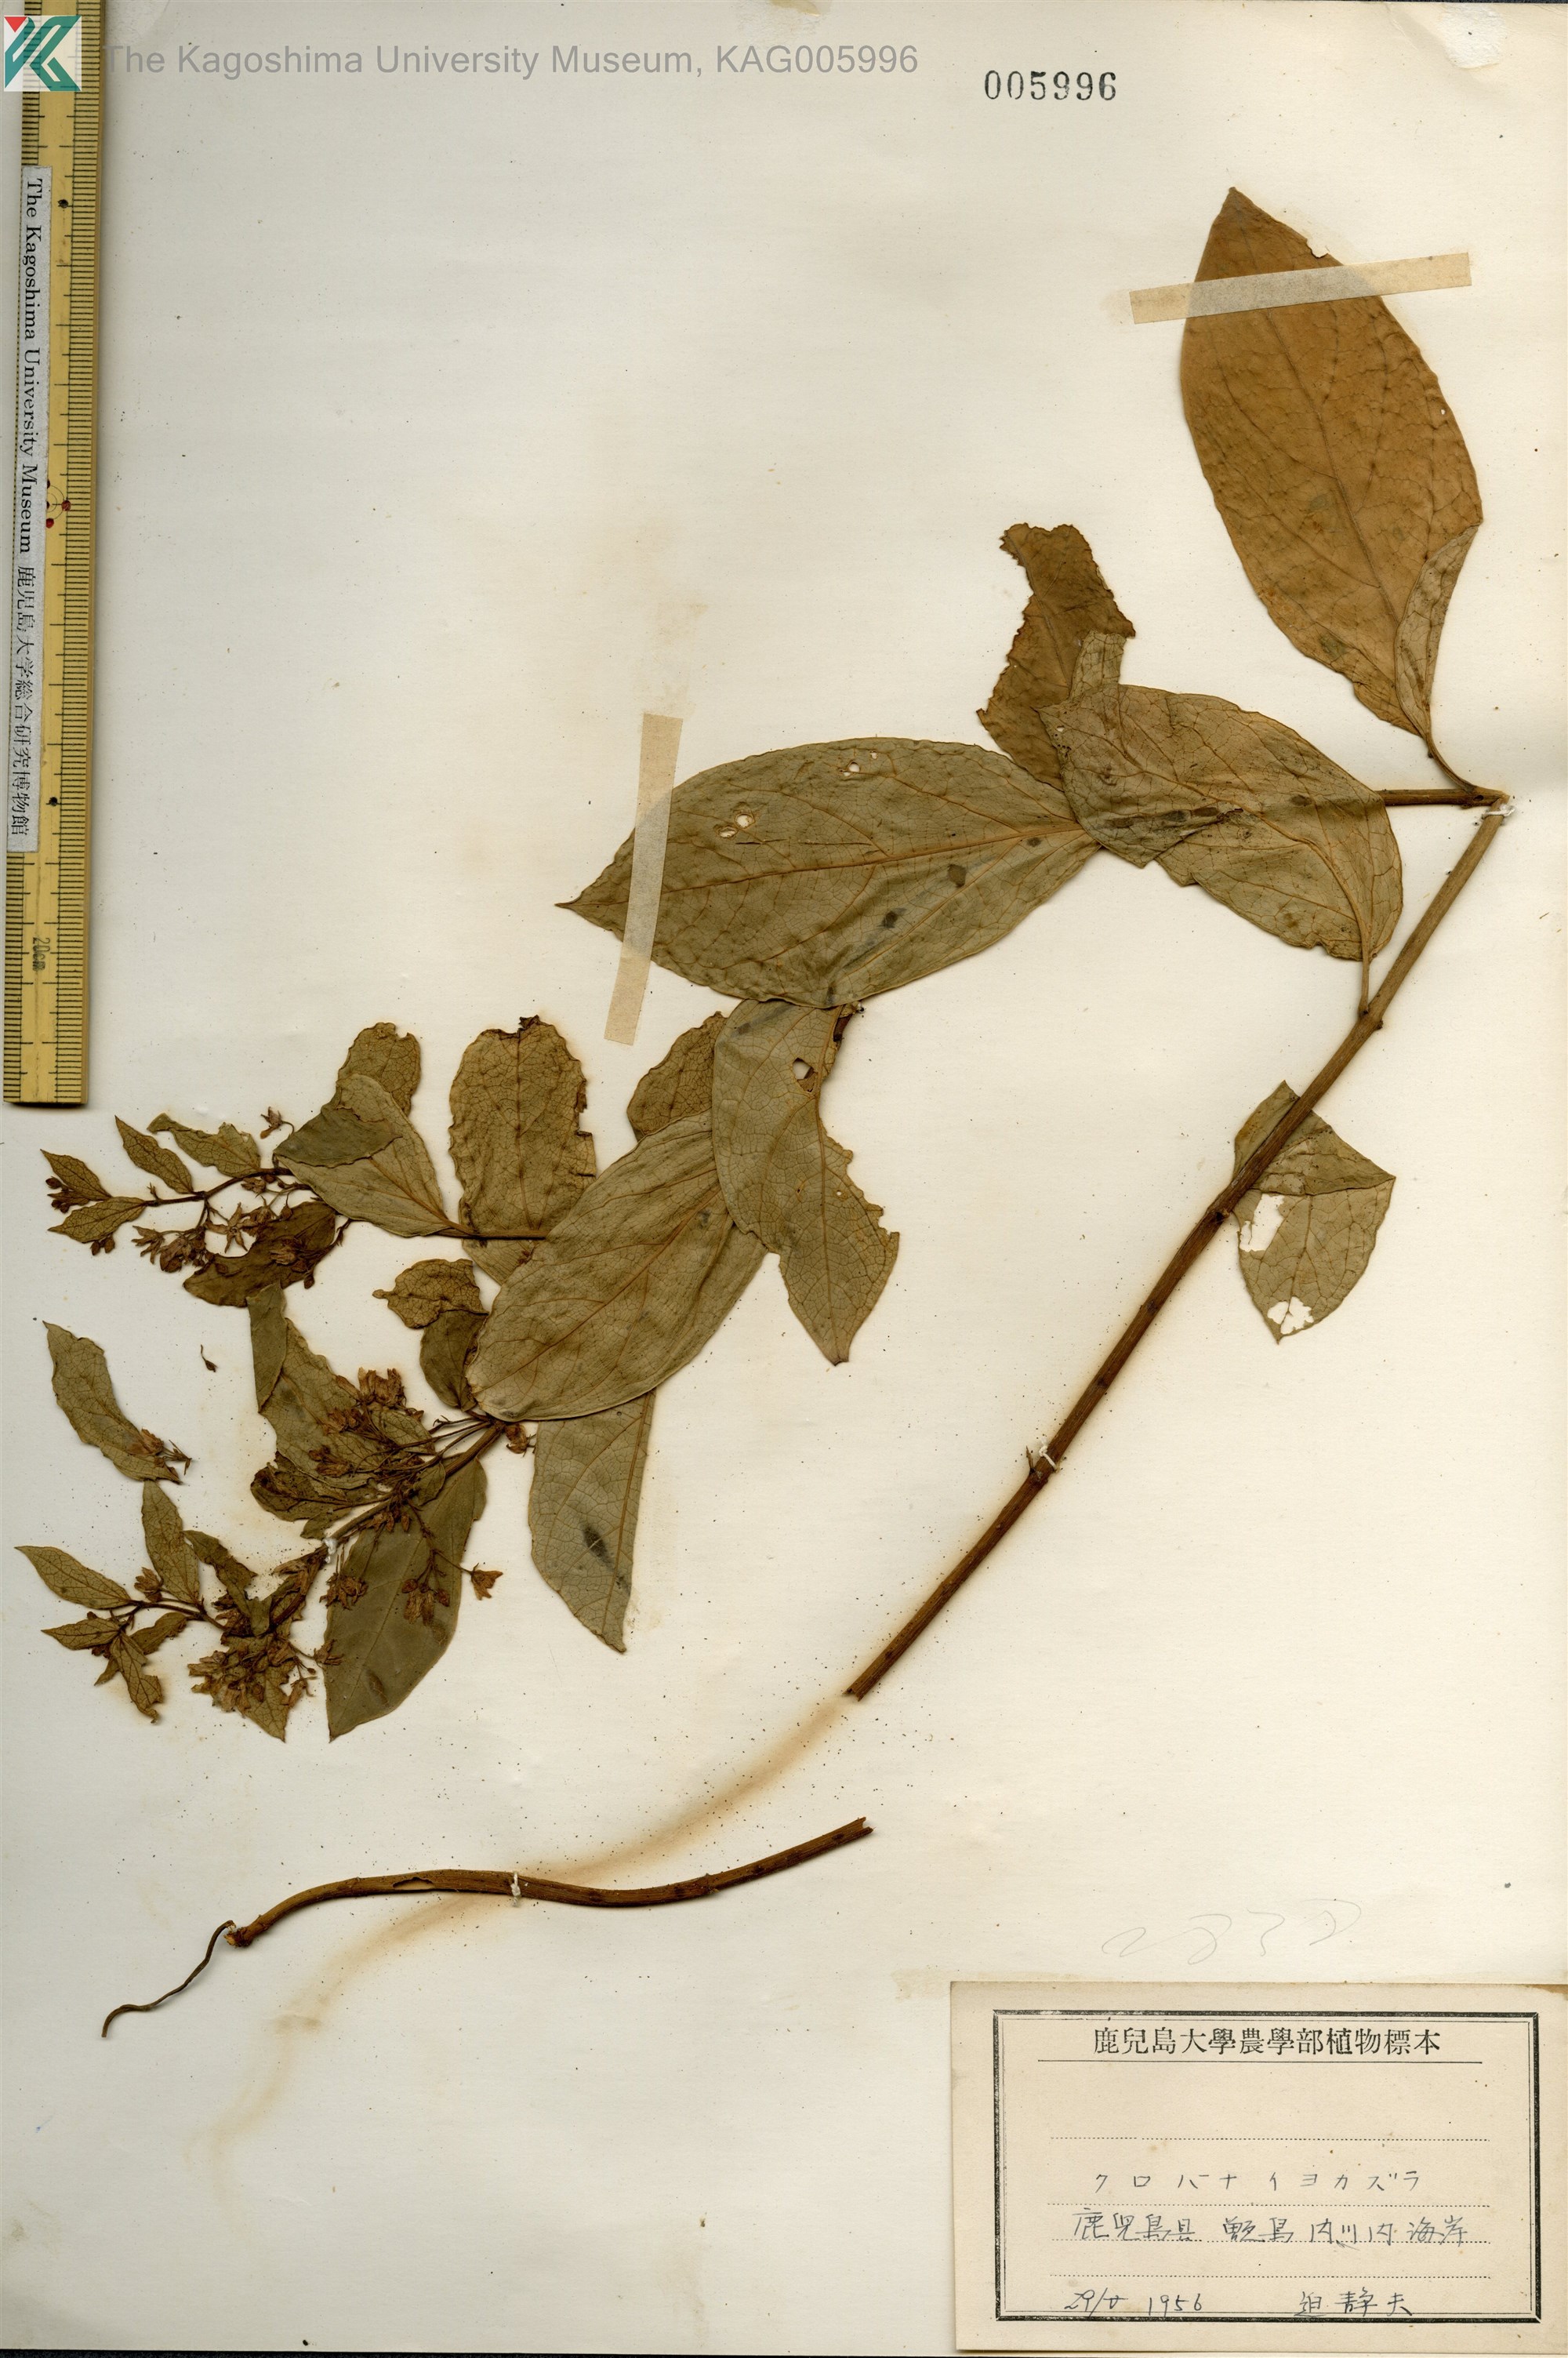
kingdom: Plantae
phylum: Tracheophyta
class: Magnoliopsida
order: Gentianales
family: Apocynaceae
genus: Vincetoxicum
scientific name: Vincetoxicum japonicum
